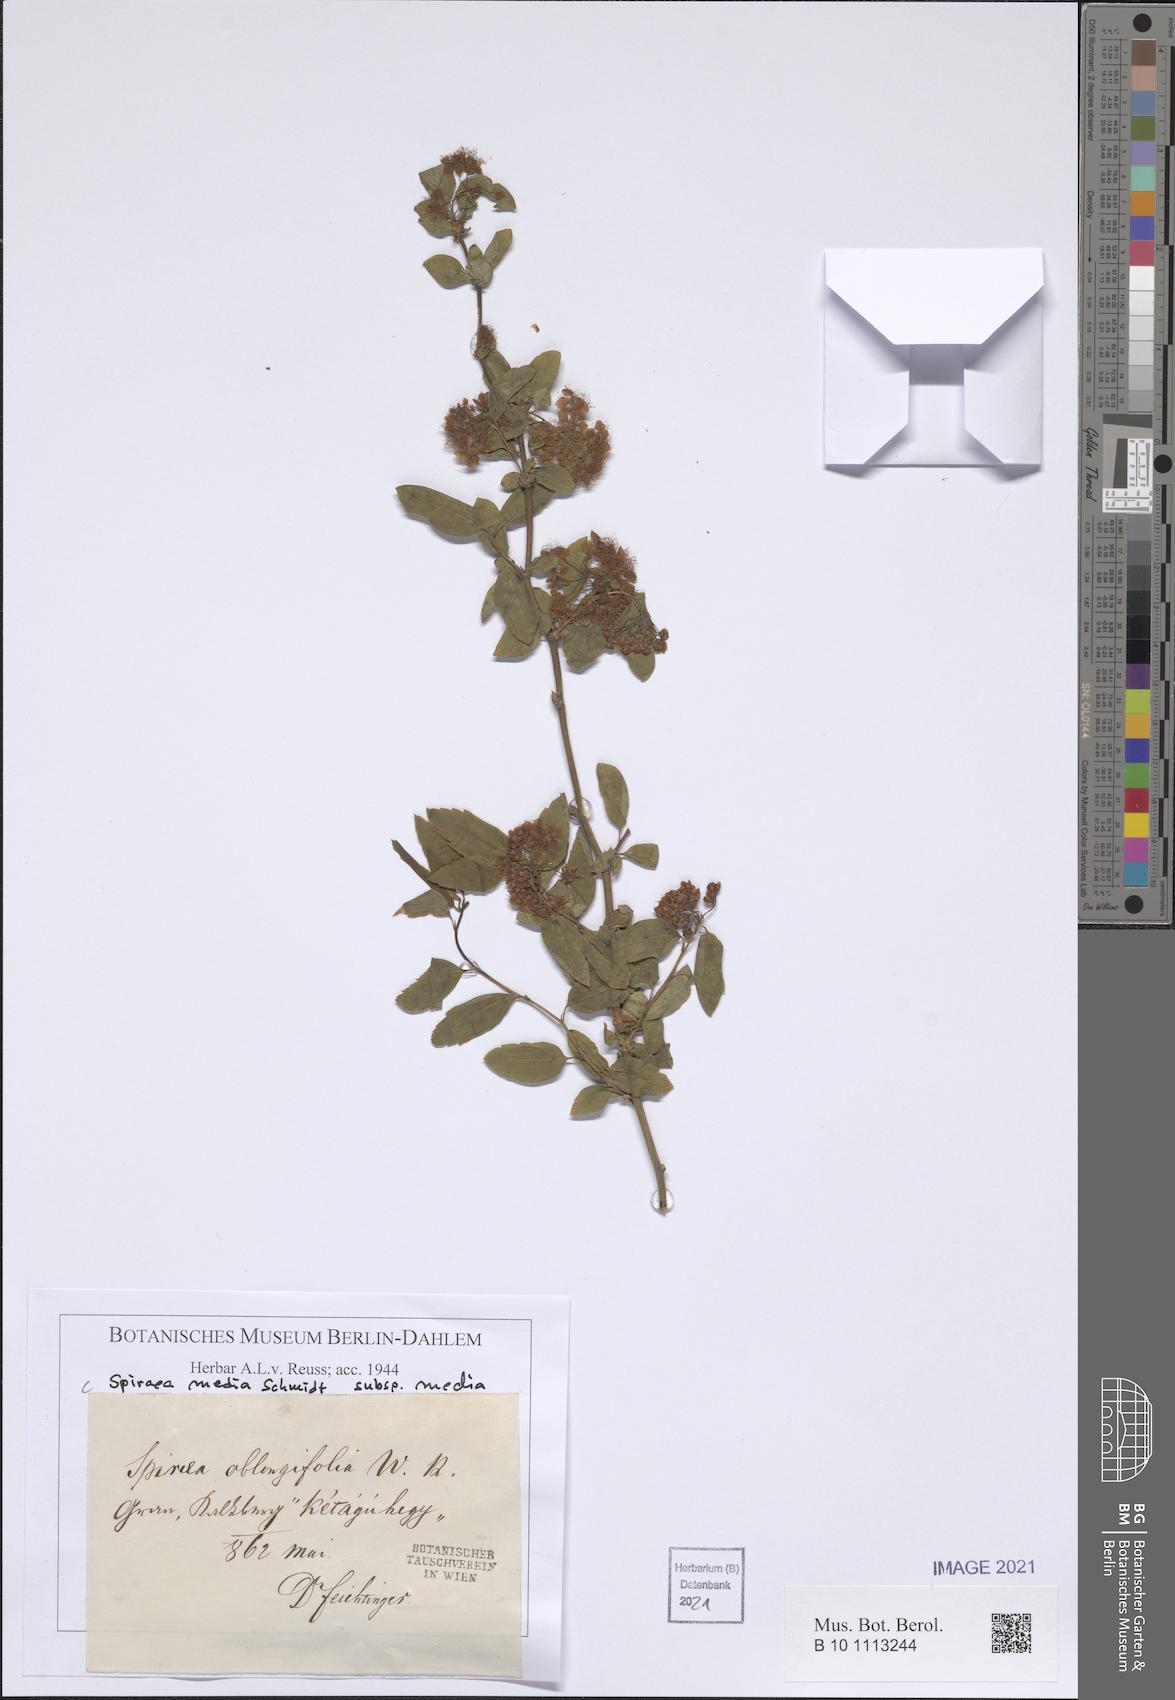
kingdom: Plantae
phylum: Tracheophyta
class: Magnoliopsida
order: Rosales
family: Rosaceae
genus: Spiraea
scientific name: Spiraea media
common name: Russian spiraea
